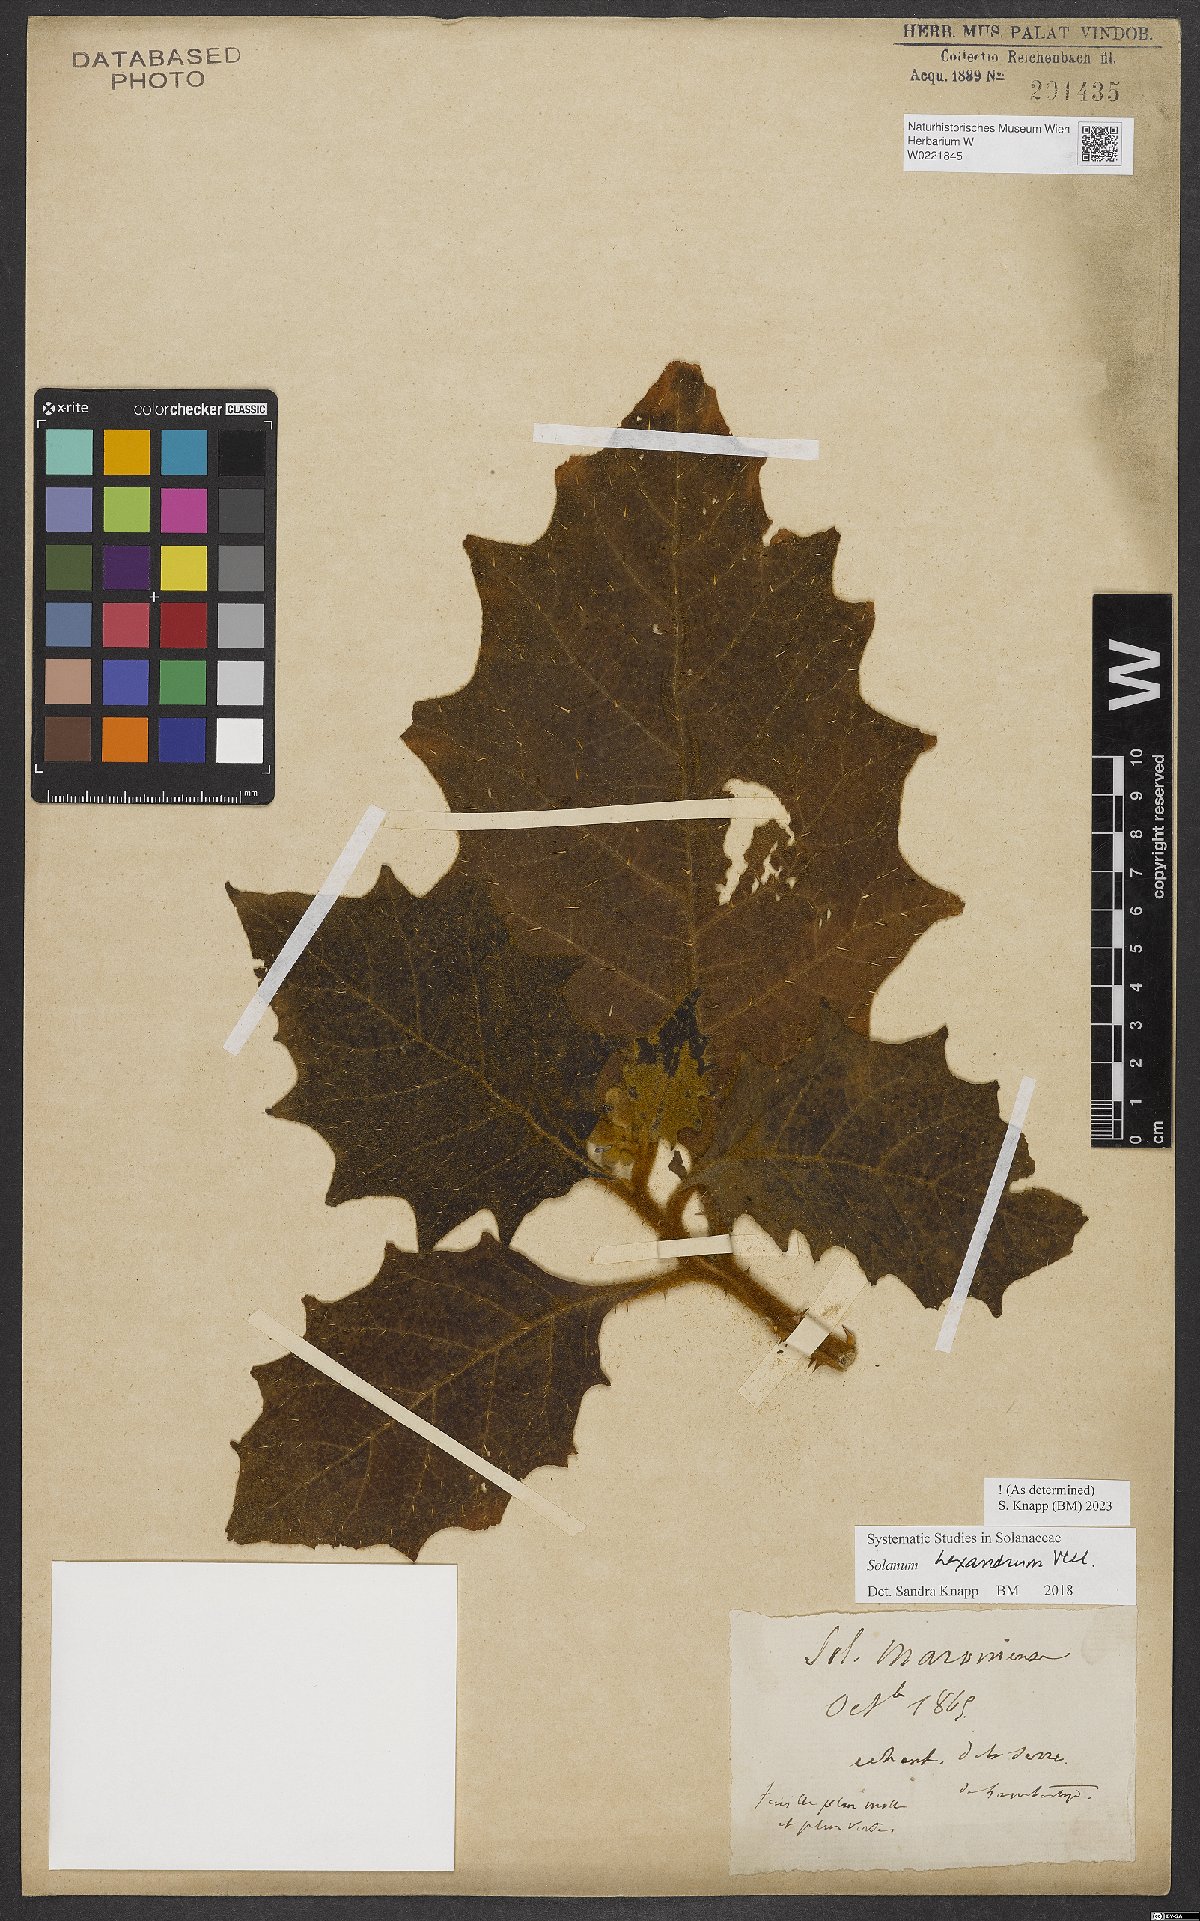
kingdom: Plantae
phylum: Tracheophyta
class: Magnoliopsida
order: Solanales
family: Solanaceae
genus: Solanum
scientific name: Solanum hexandrum
